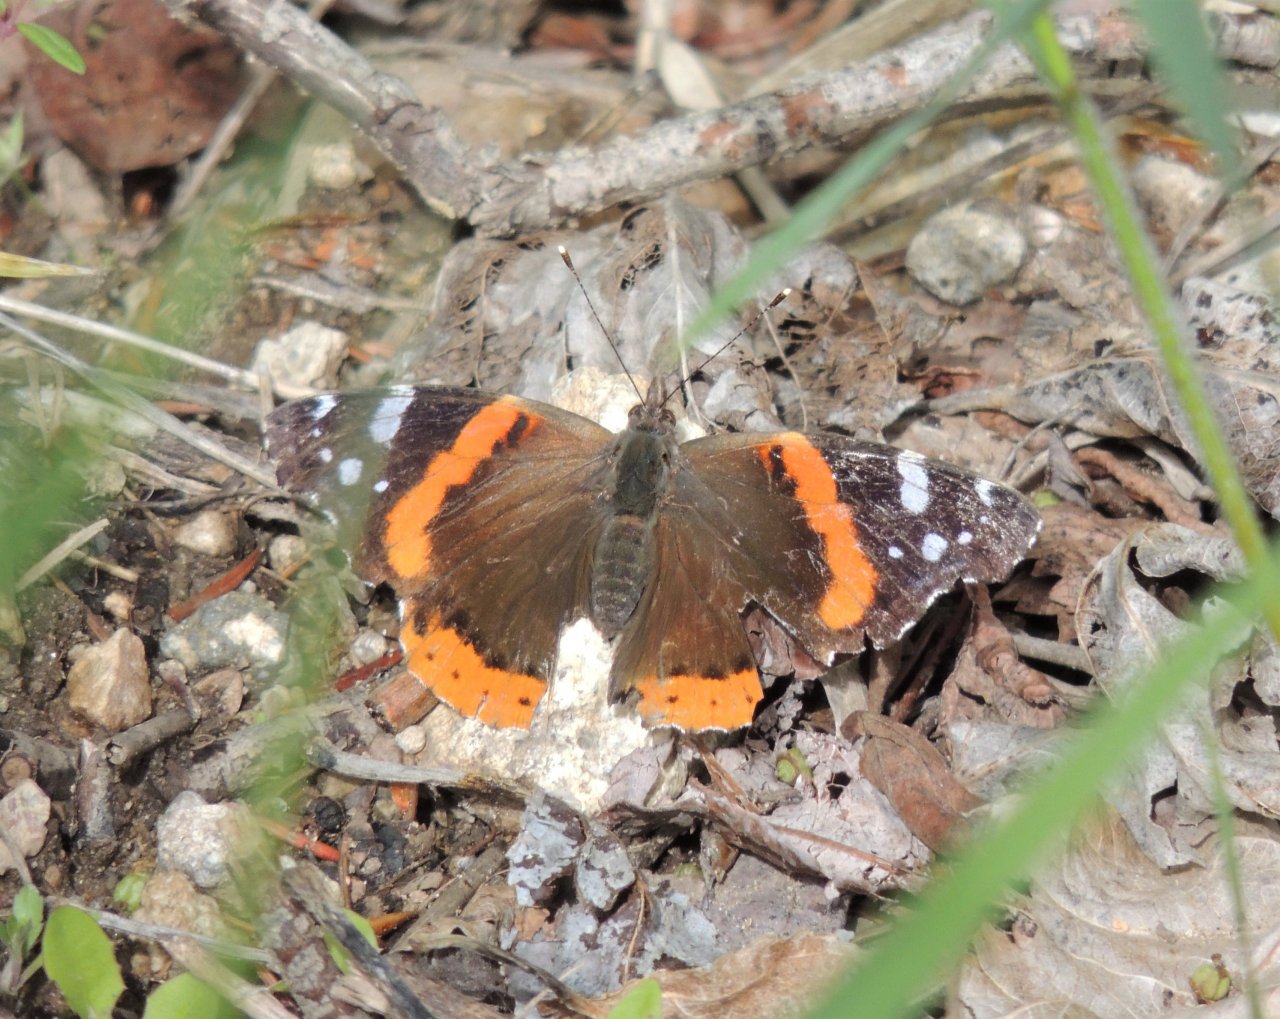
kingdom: Animalia
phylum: Arthropoda
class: Insecta
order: Lepidoptera
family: Nymphalidae
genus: Vanessa
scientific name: Vanessa atalanta
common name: Red Admiral
